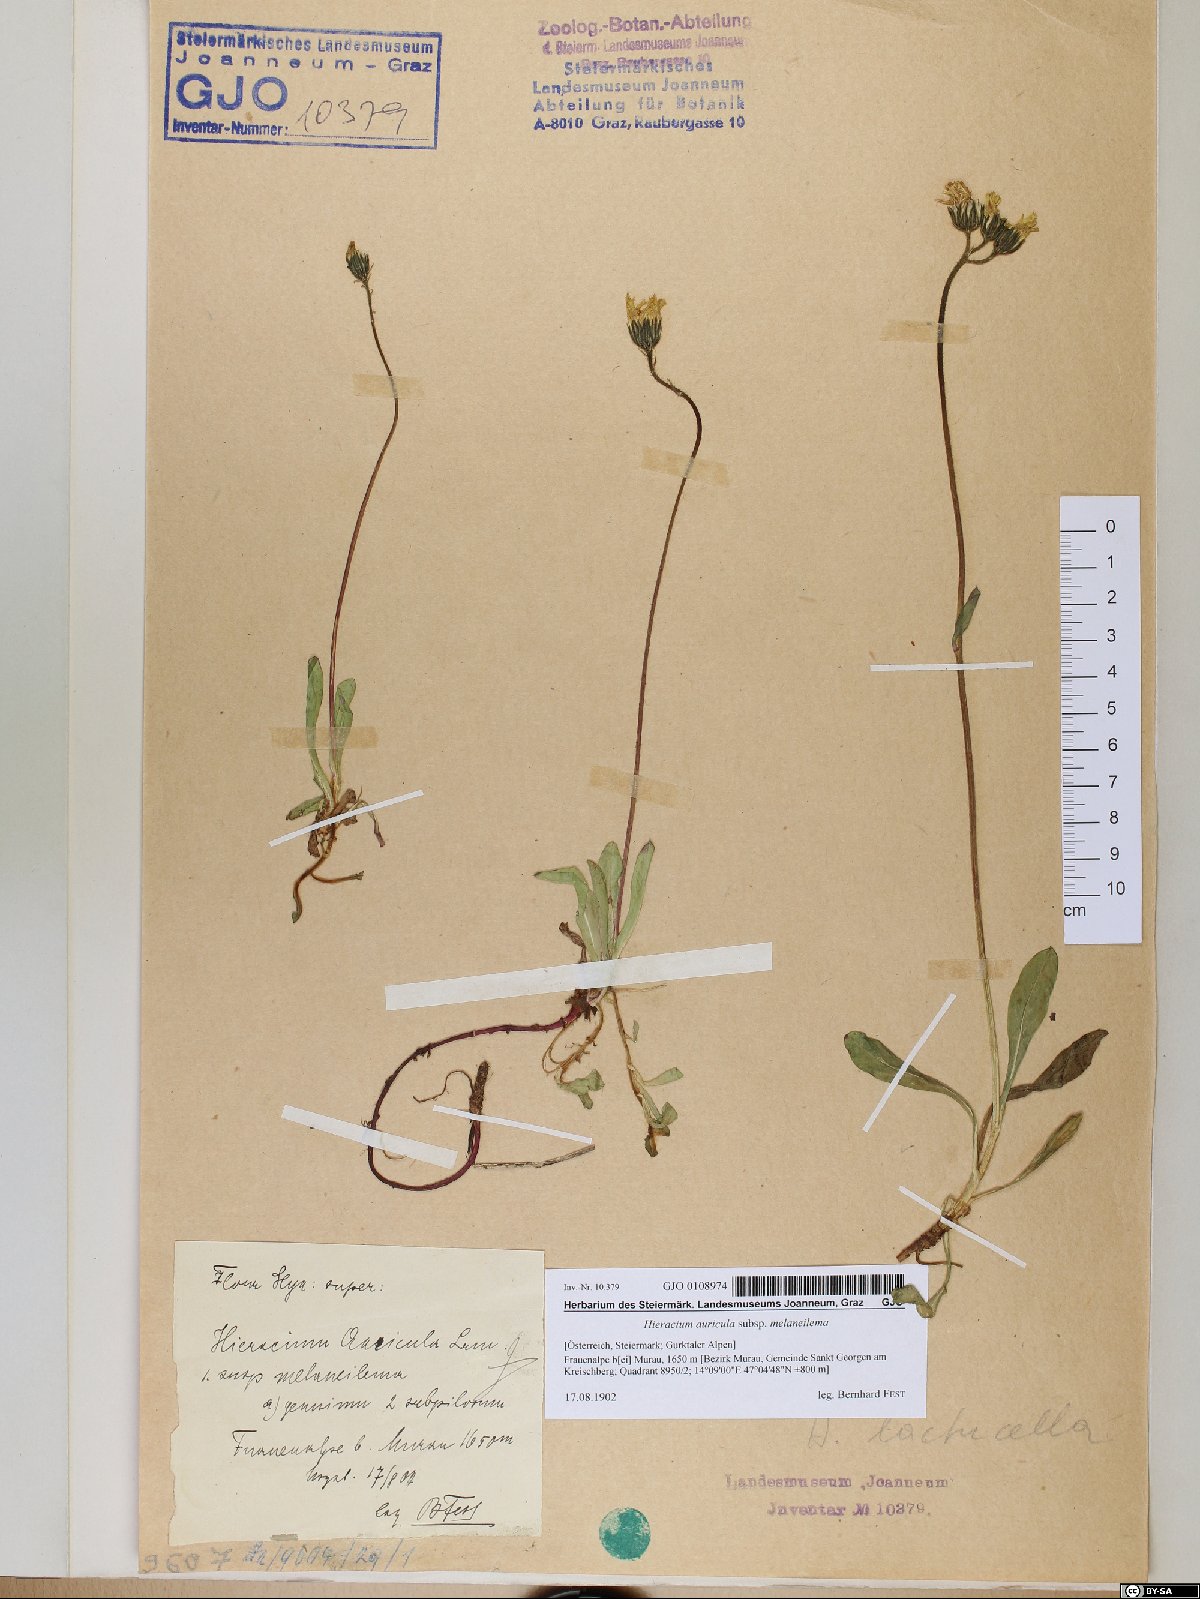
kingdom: Plantae
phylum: Tracheophyta
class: Magnoliopsida
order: Asterales
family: Asteraceae
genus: Pilosella
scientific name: Pilosella lactucella
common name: Glaucous fox-and-cubs
